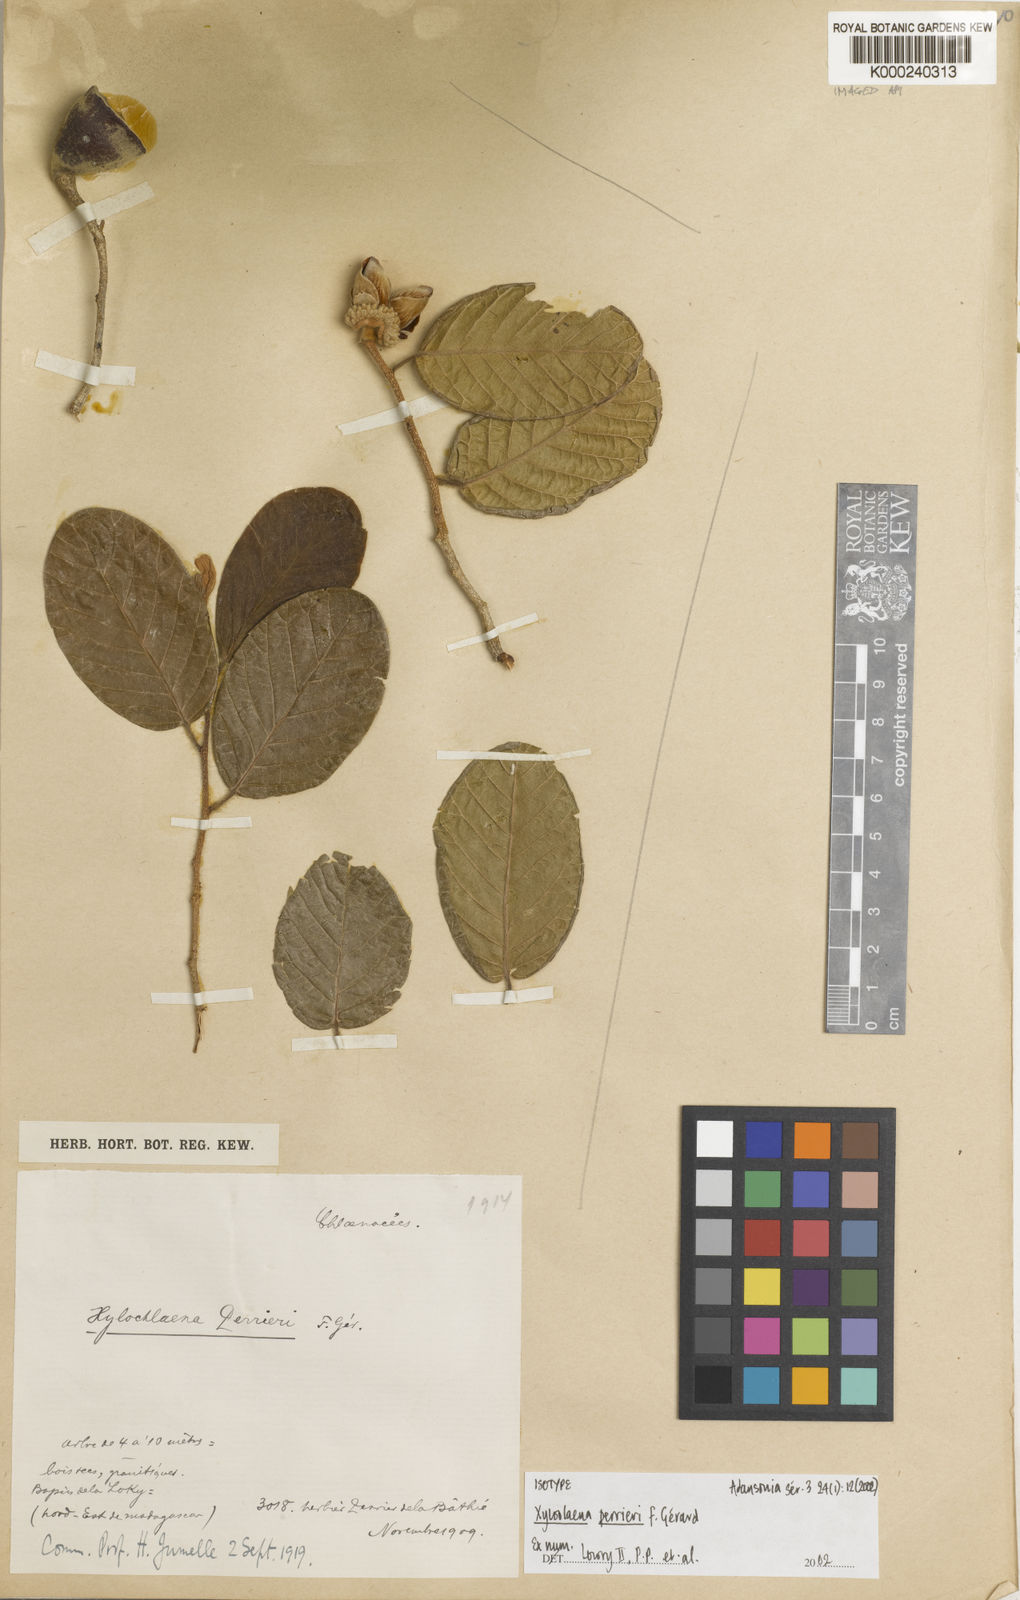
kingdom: Plantae
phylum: Tracheophyta
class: Magnoliopsida
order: Malvales
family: Sarcolaenaceae
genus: Xyloolaena
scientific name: Xyloolaena
